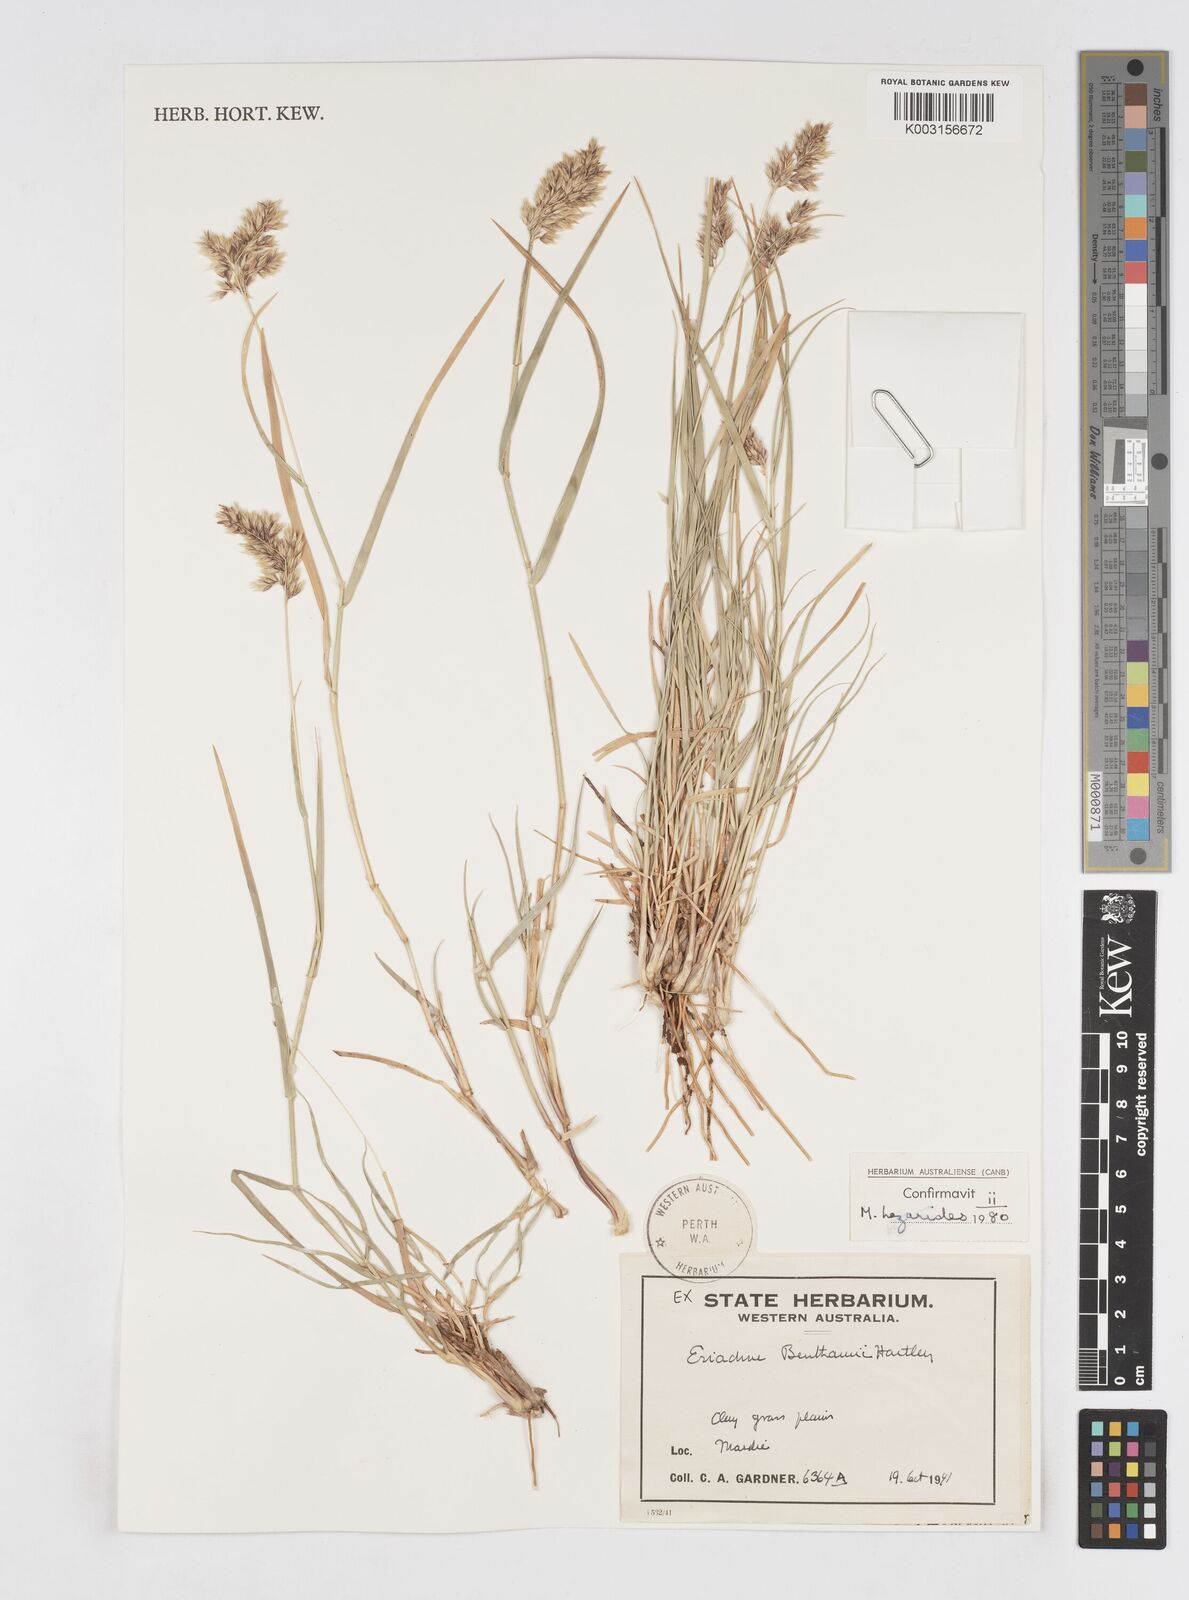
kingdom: Plantae
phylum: Tracheophyta
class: Liliopsida
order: Poales
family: Poaceae
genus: Eriachne
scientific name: Eriachne benthamii
